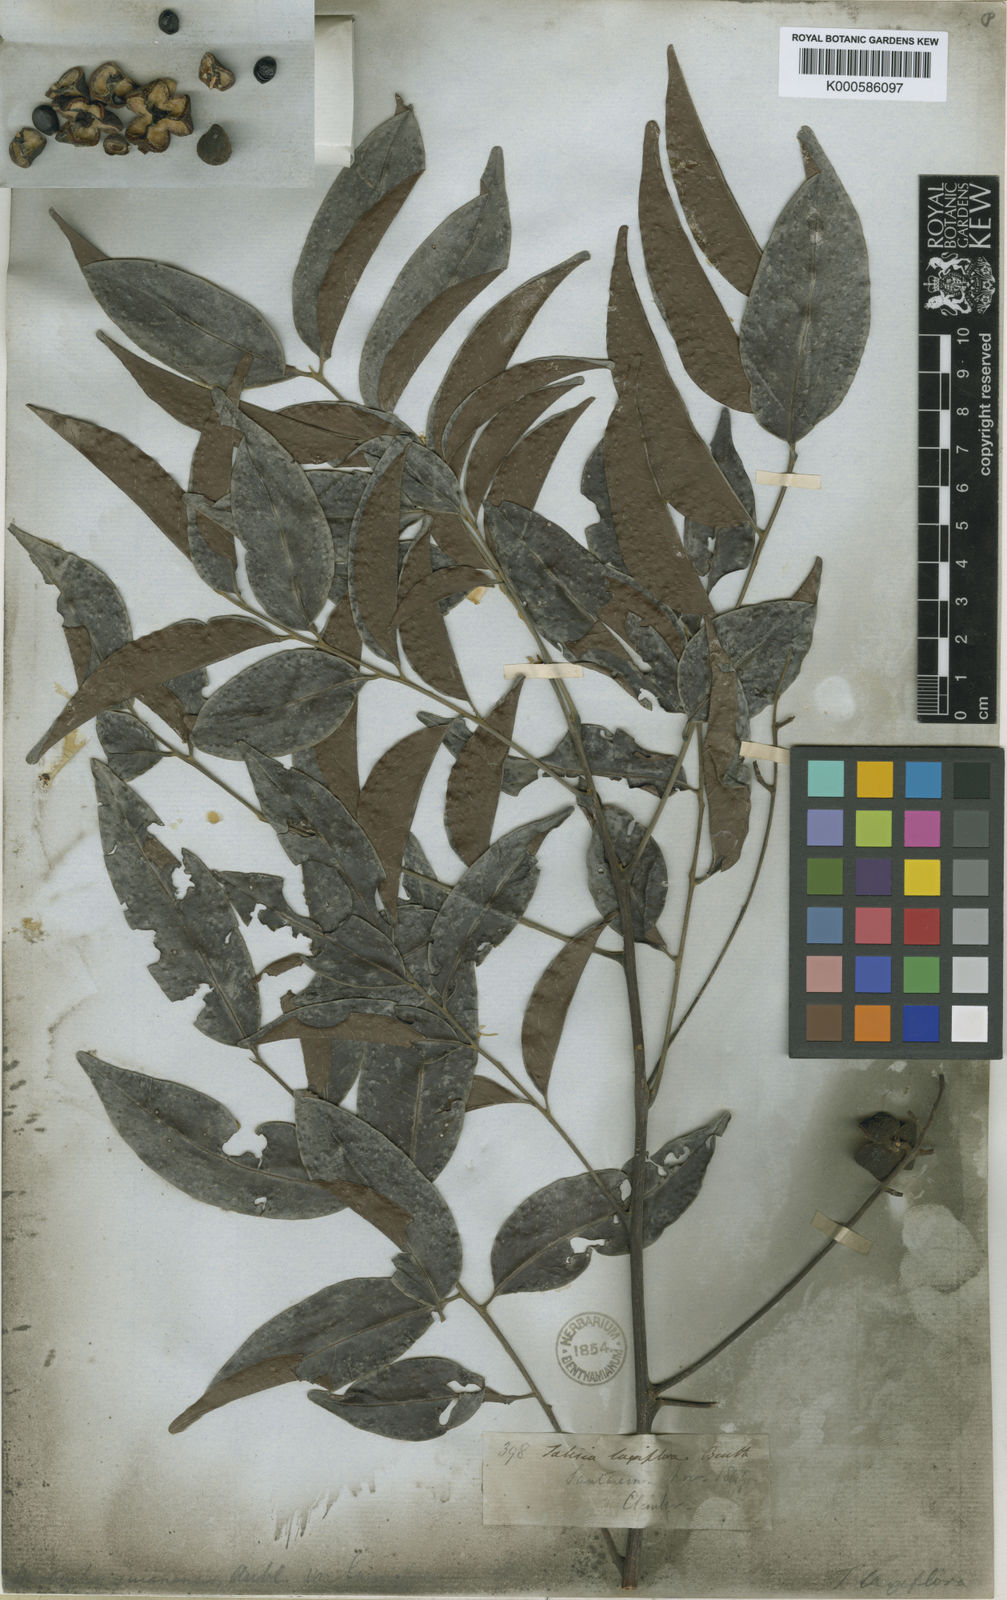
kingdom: Plantae
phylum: Tracheophyta
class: Magnoliopsida
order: Sapindales
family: Sapindaceae
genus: Matayba
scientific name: Matayba guianensis
